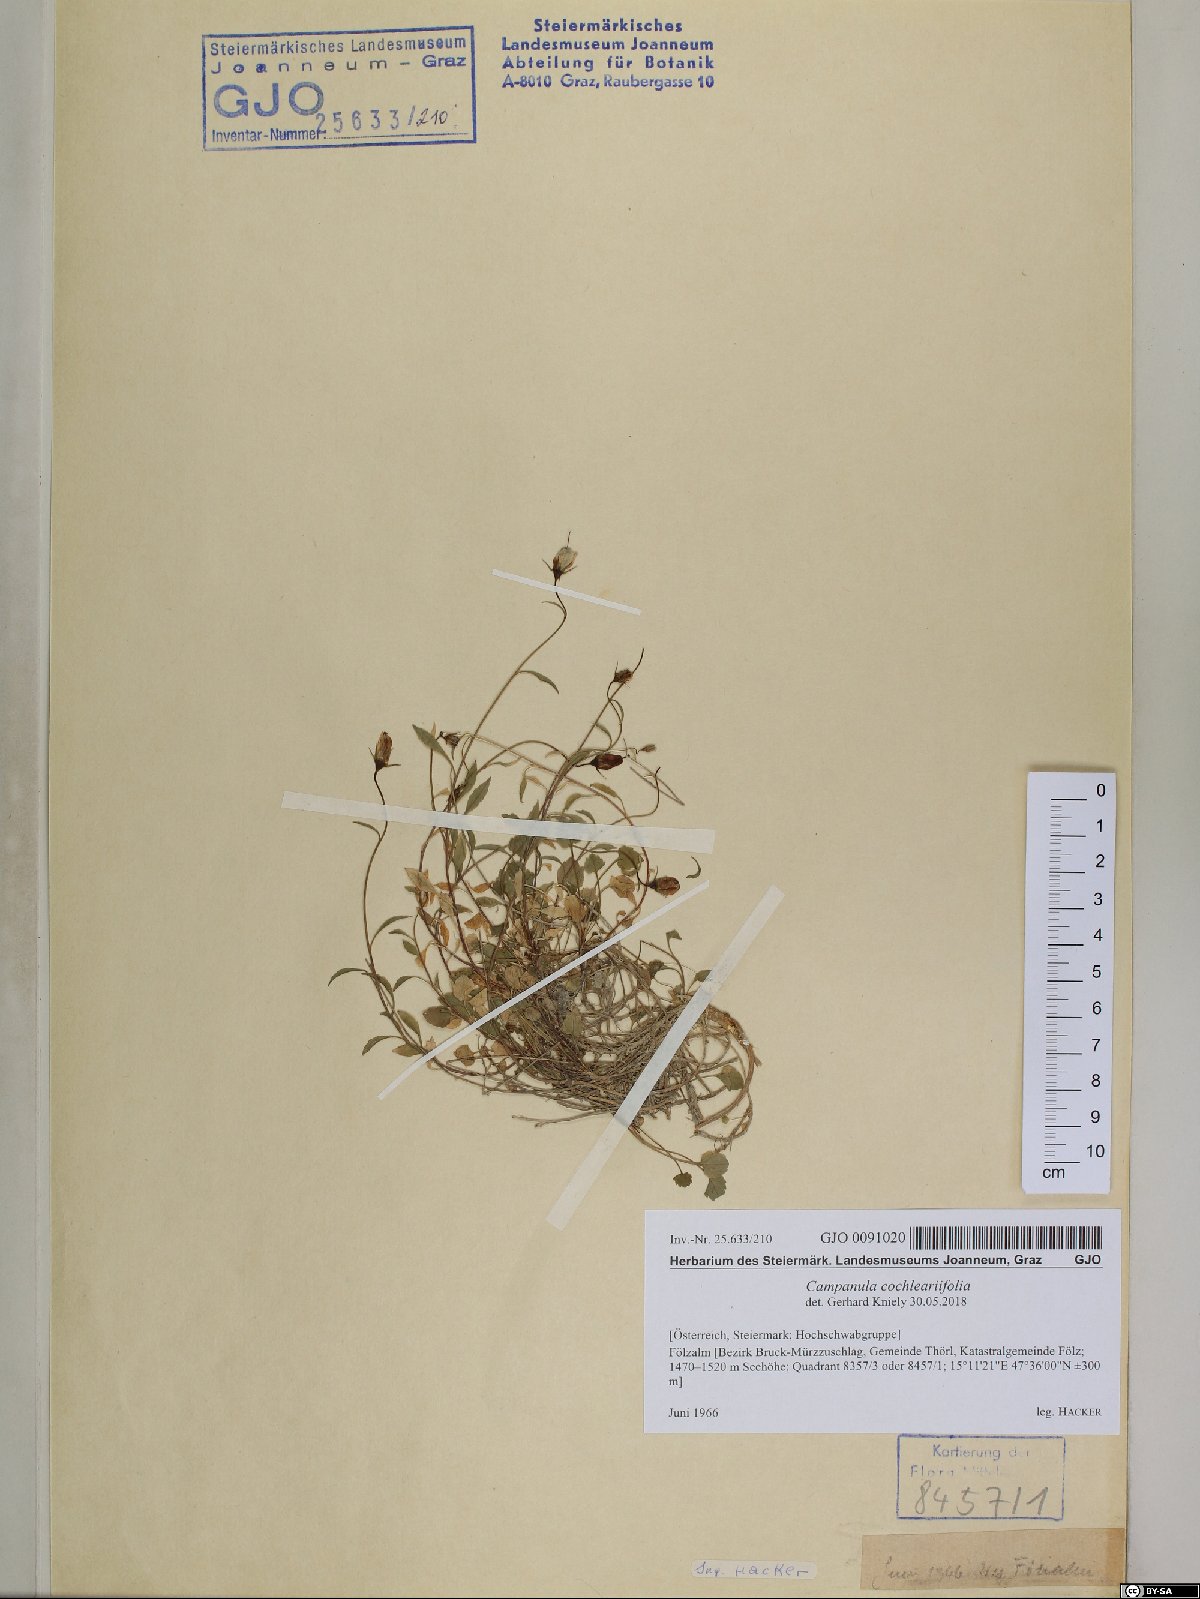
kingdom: Plantae
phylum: Tracheophyta
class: Magnoliopsida
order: Asterales
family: Campanulaceae
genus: Campanula
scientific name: Campanula cochleariifolia
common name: Fairies'-thimbles
